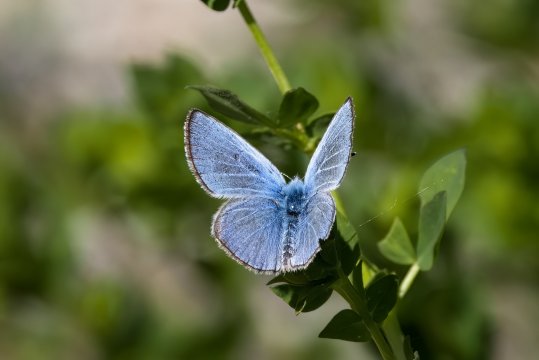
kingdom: Animalia
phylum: Arthropoda
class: Insecta
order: Lepidoptera
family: Lycaenidae
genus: Glaucopsyche
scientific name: Glaucopsyche lygdamus
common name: Silvery Blue
